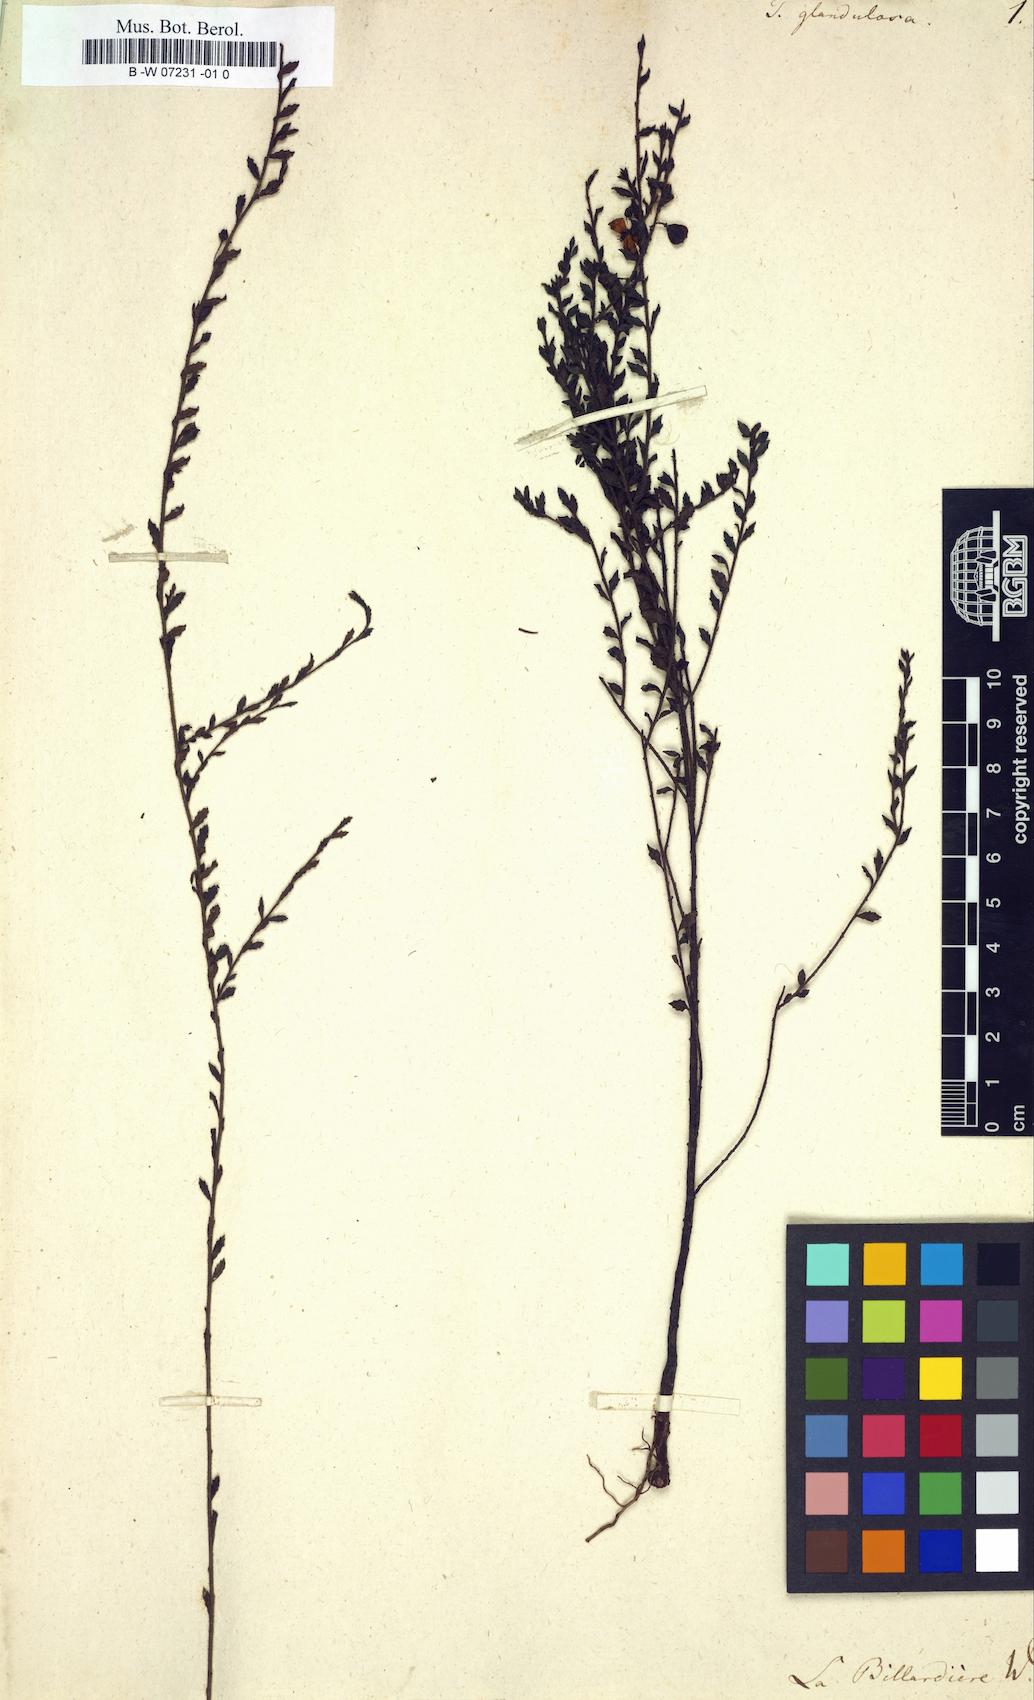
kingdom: Plantae
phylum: Tracheophyta
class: Magnoliopsida
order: Oxalidales
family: Elaeocarpaceae
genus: Tetratheca
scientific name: Tetratheca labillardierei
